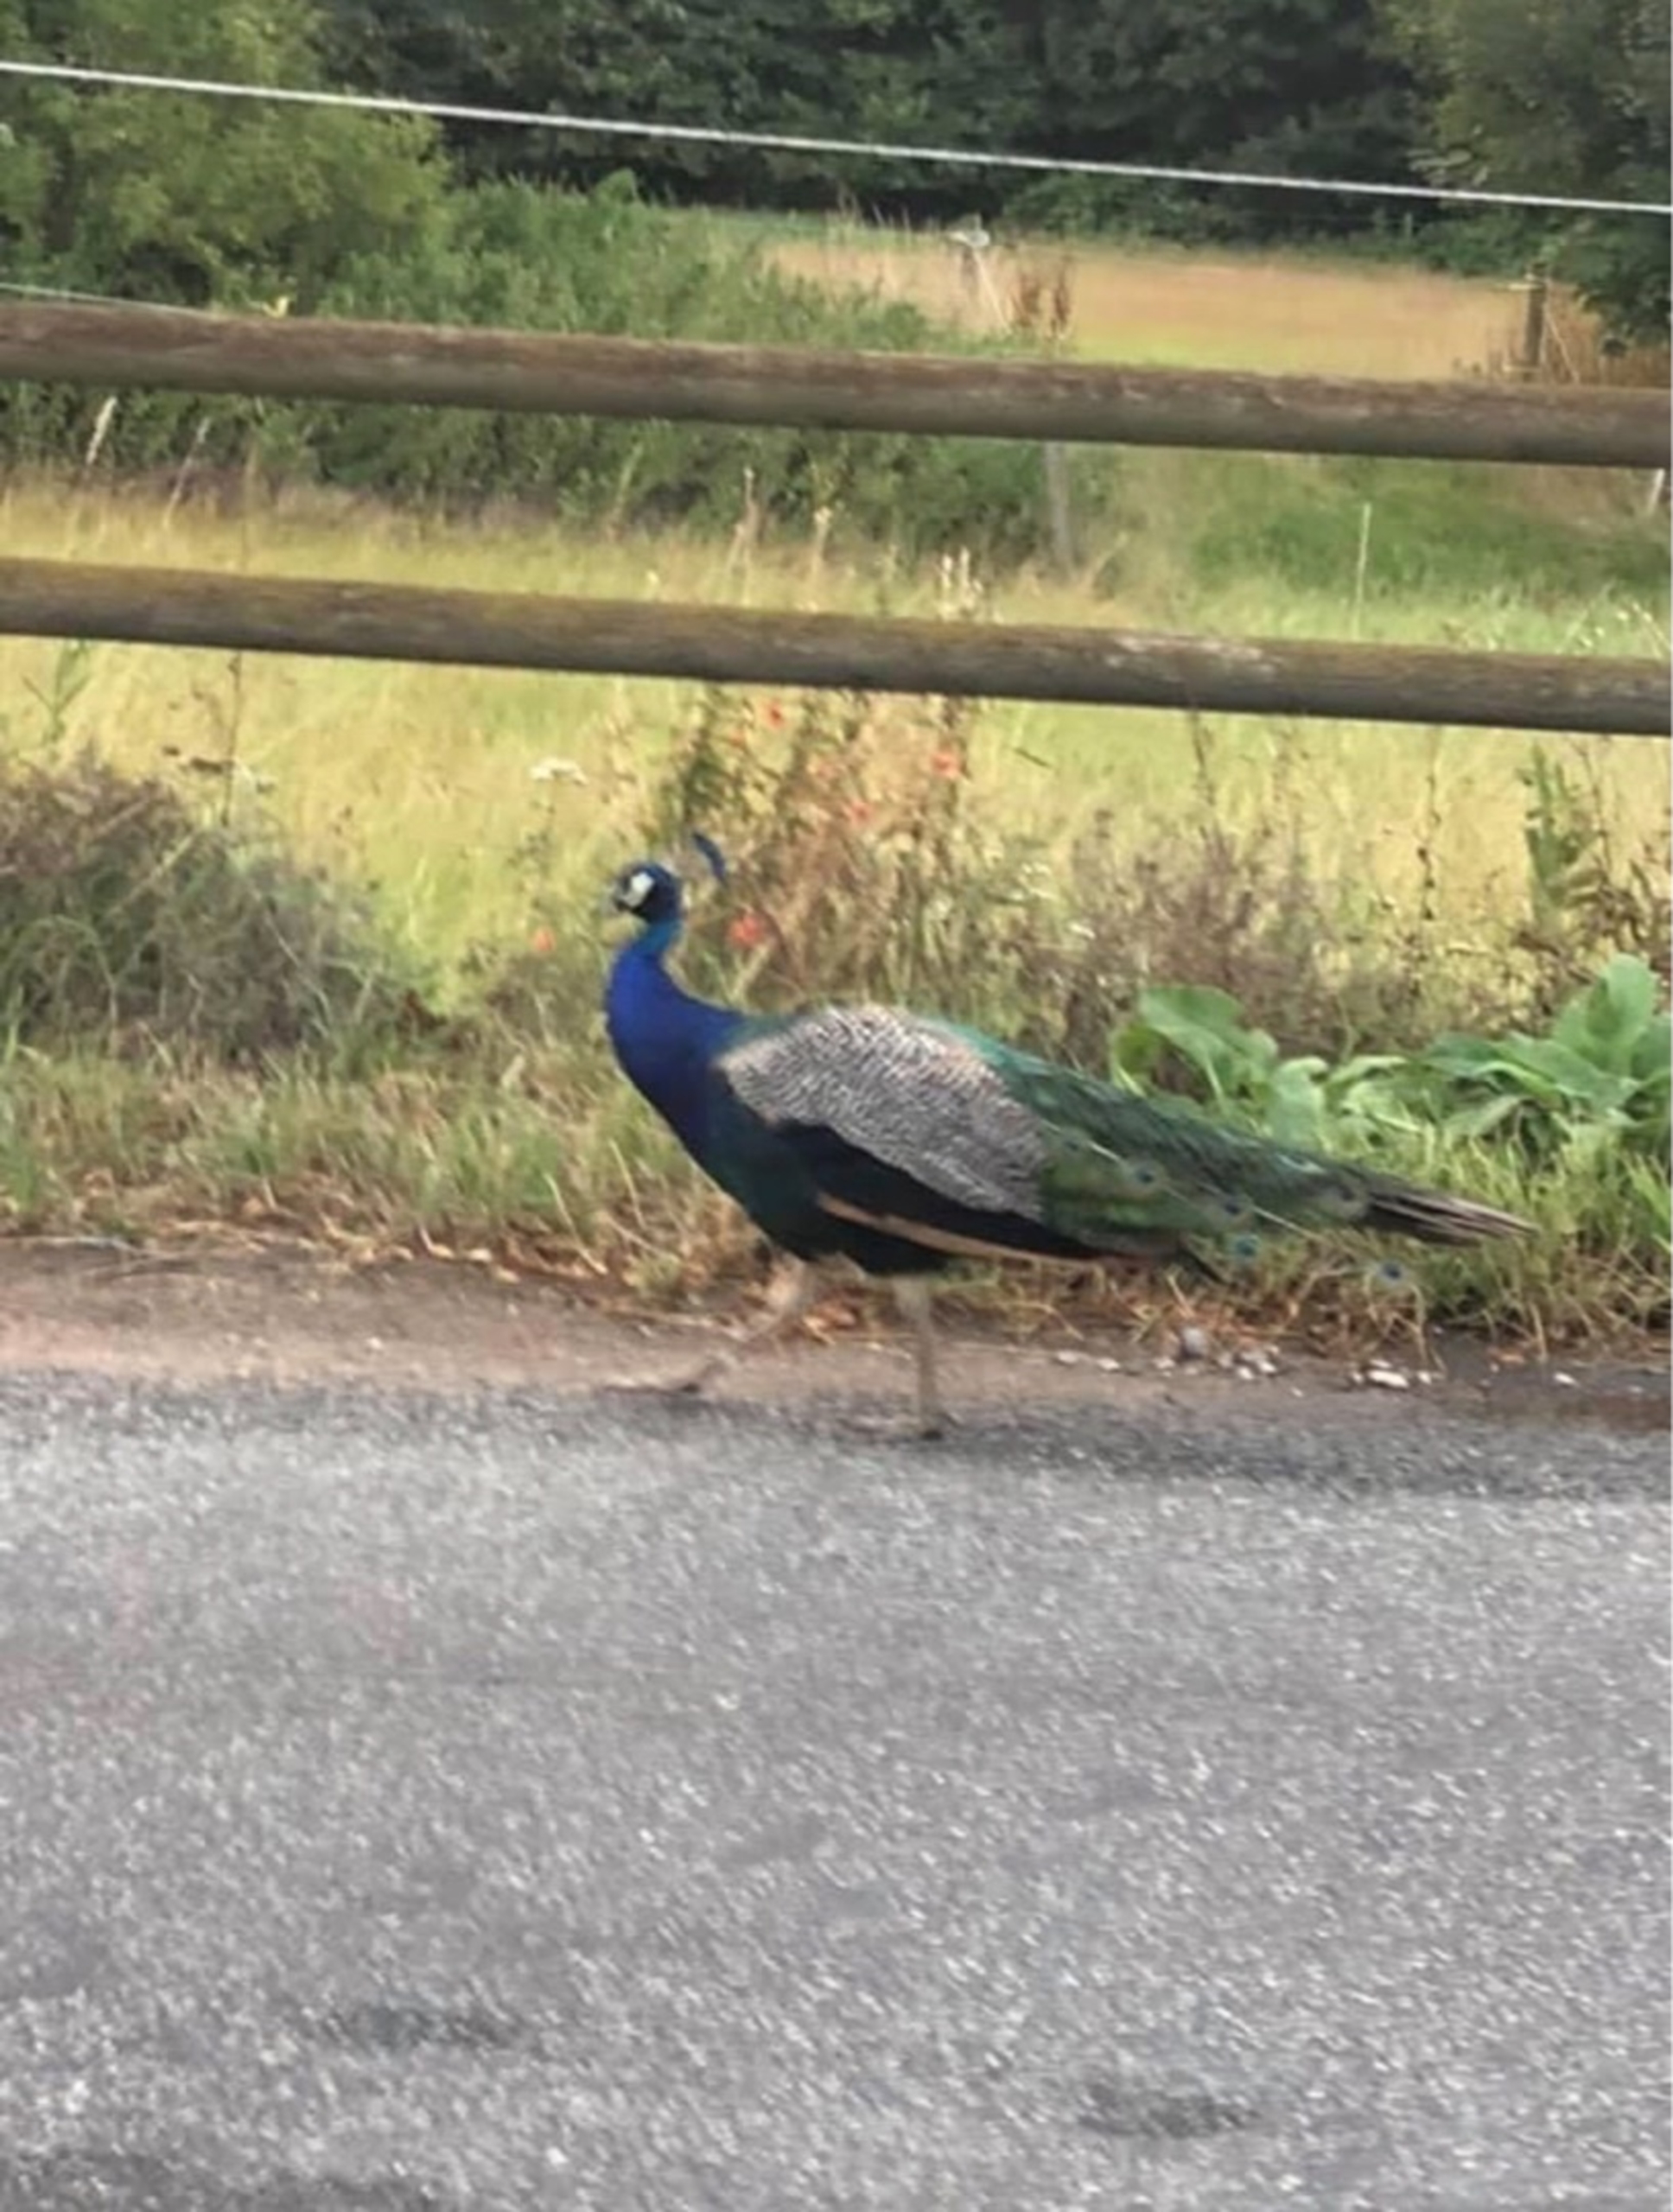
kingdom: Animalia
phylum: Chordata
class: Aves
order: Galliformes
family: Phasianidae
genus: Pavo
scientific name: Pavo cristatus
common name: Påfugl
